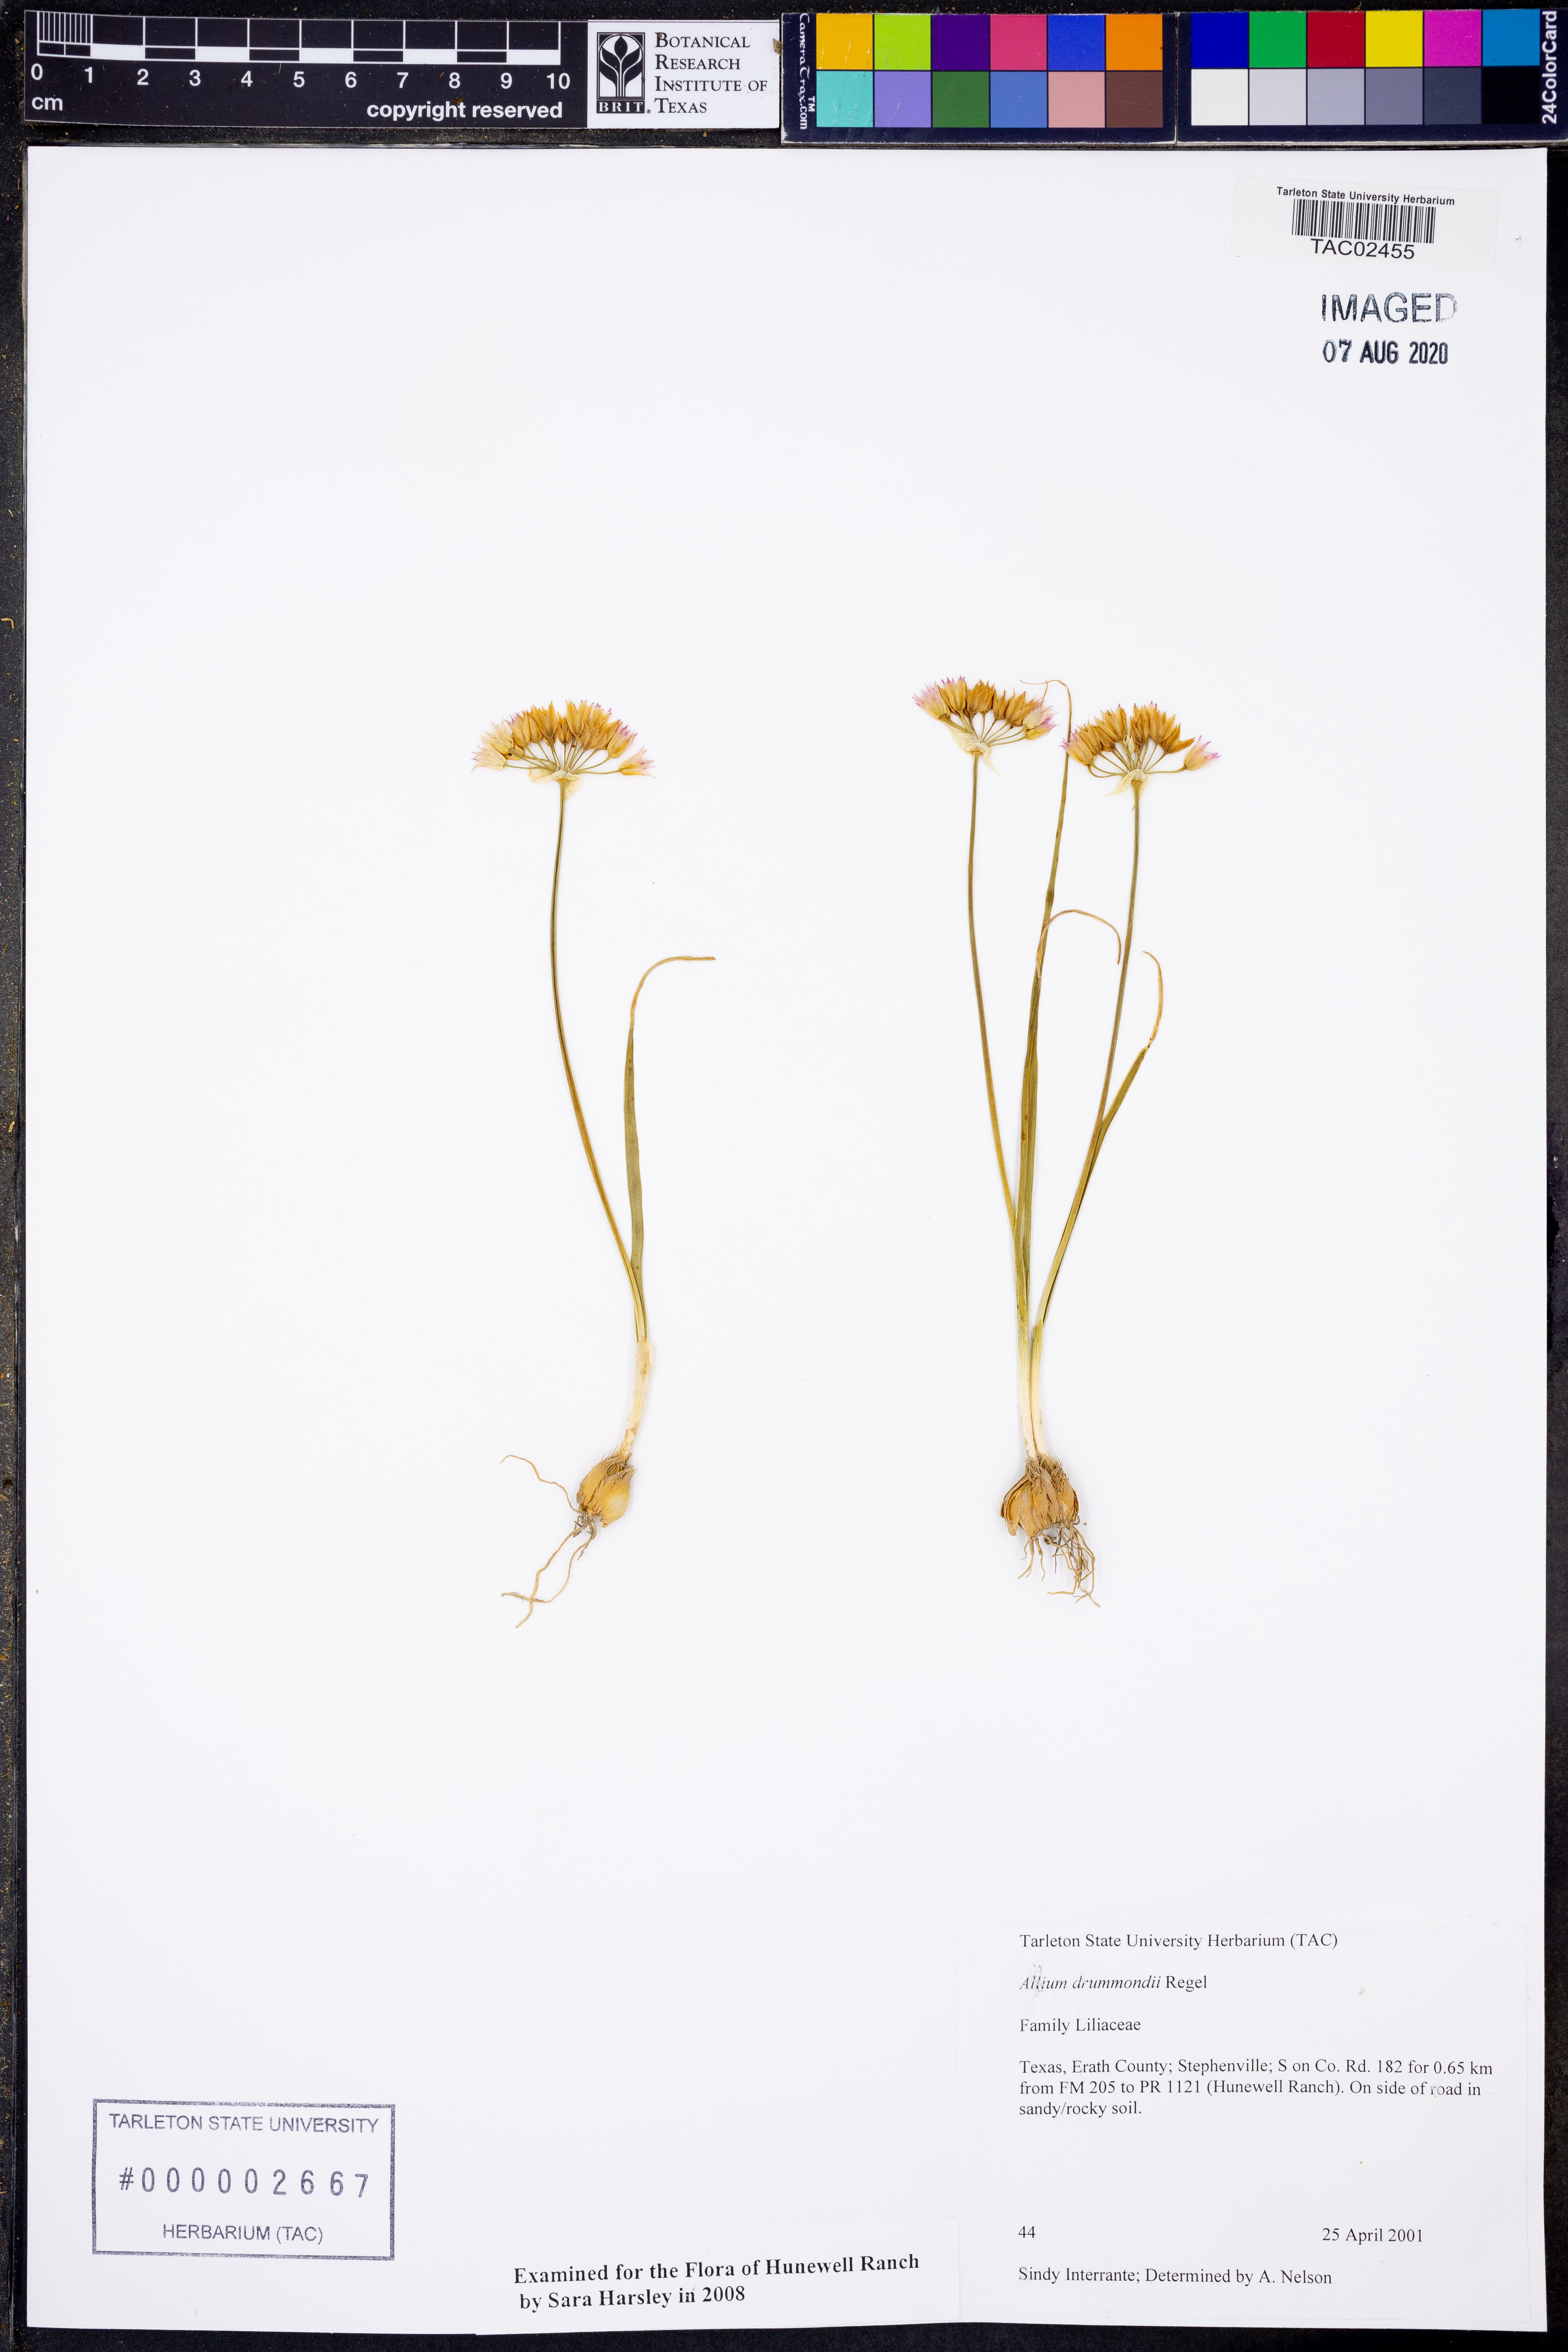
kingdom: Plantae
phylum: Tracheophyta
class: Liliopsida
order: Asparagales
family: Amaryllidaceae
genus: Allium
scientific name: Allium drummondii
